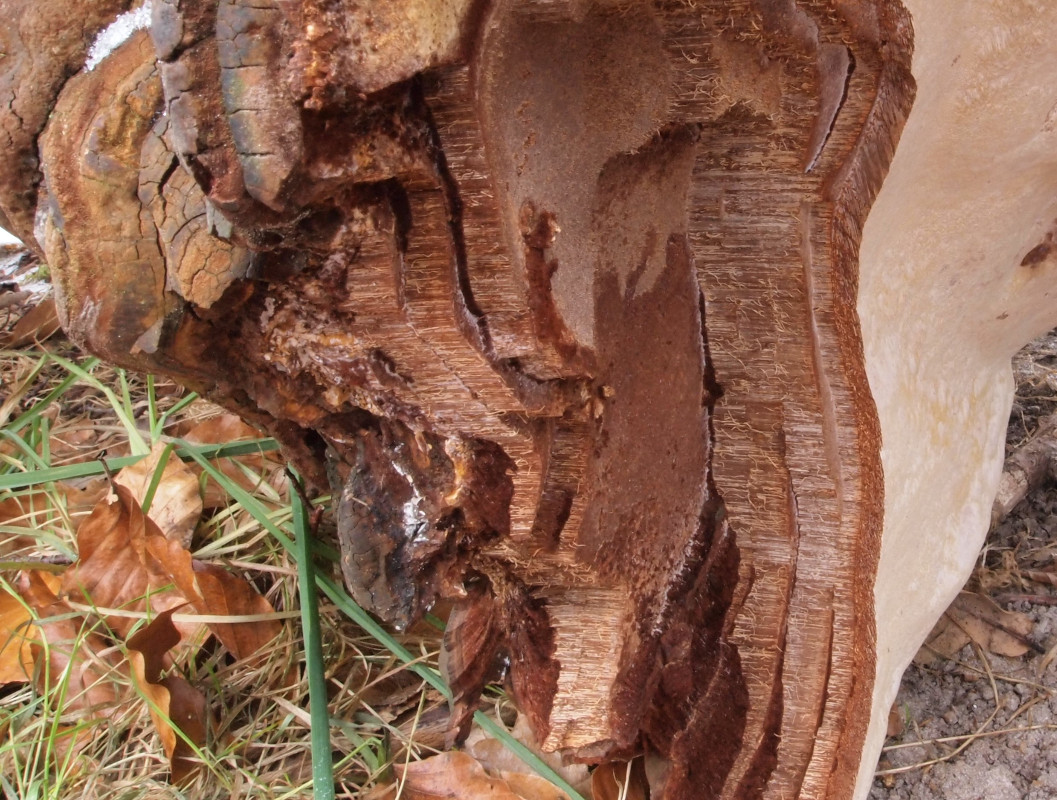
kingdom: Fungi
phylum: Basidiomycota
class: Agaricomycetes
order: Polyporales
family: Polyporaceae
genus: Ganoderma
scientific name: Ganoderma adspersum
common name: grov lakporesvamp
